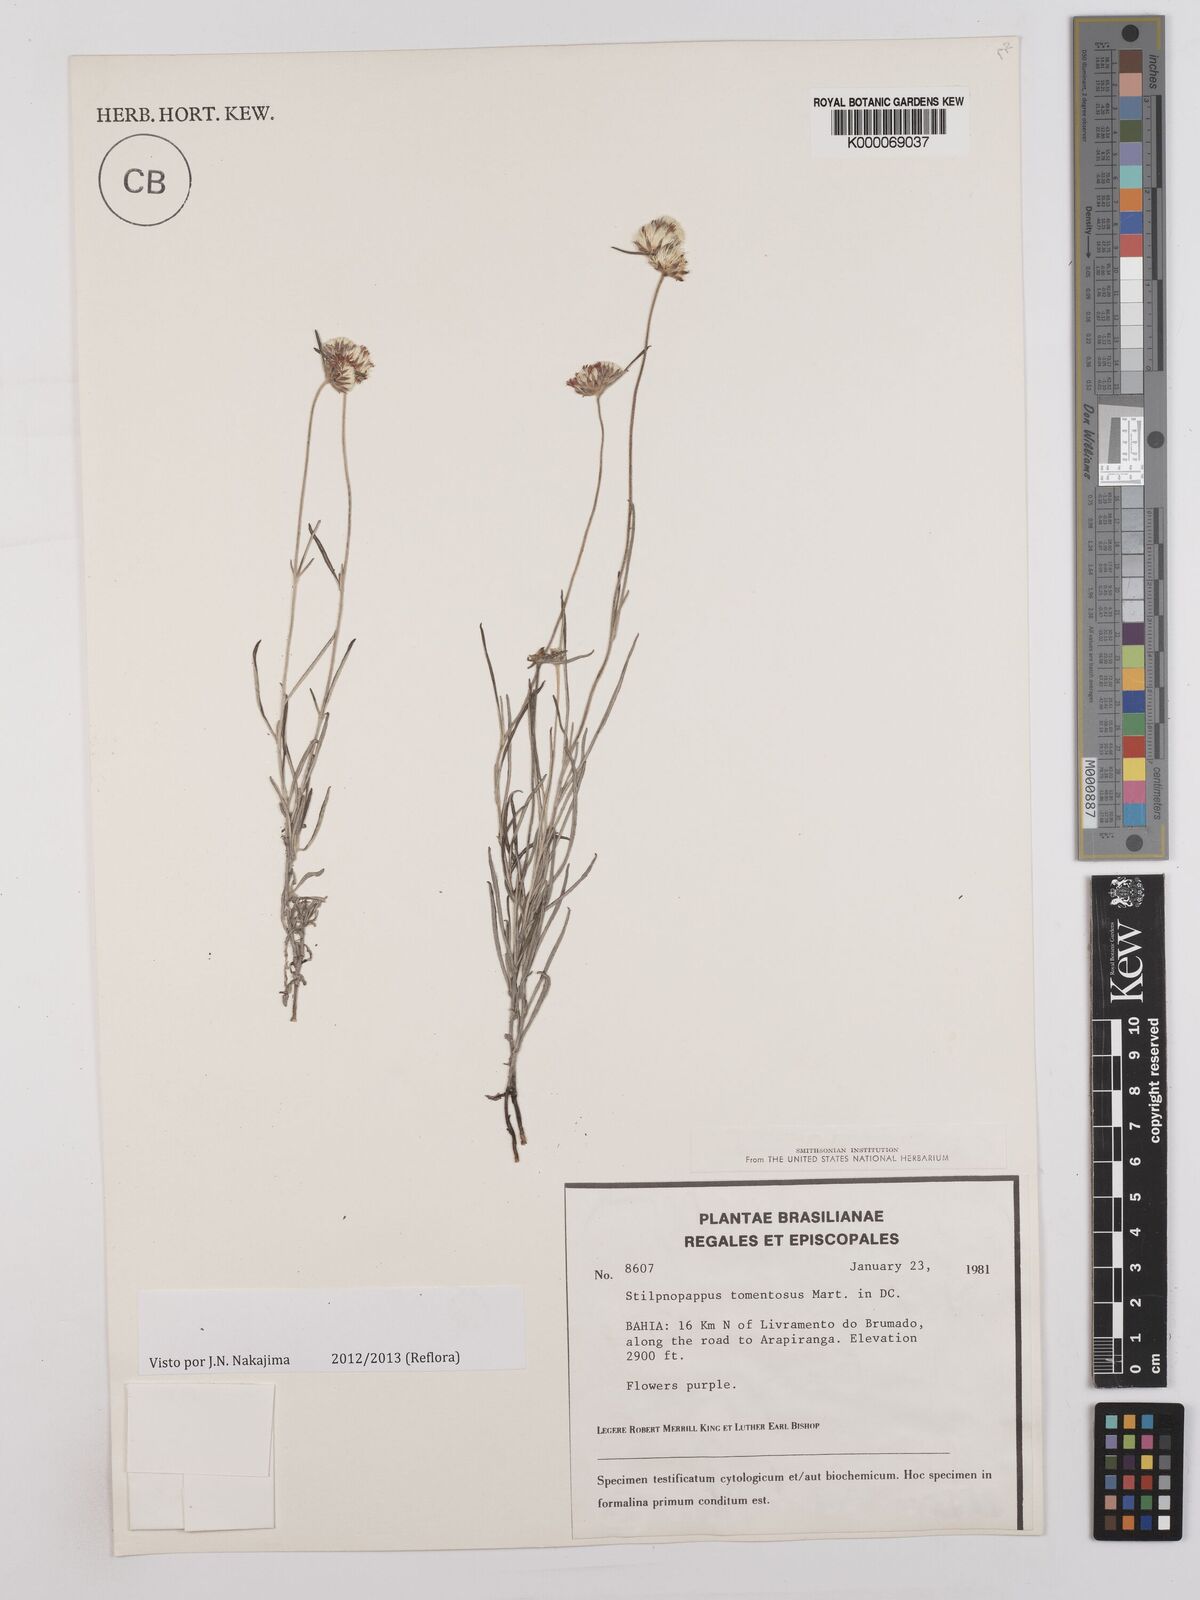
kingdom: Plantae
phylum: Tracheophyta
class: Magnoliopsida
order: Asterales
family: Asteraceae
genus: Stilpnopappus
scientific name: Stilpnopappus tomentosus
